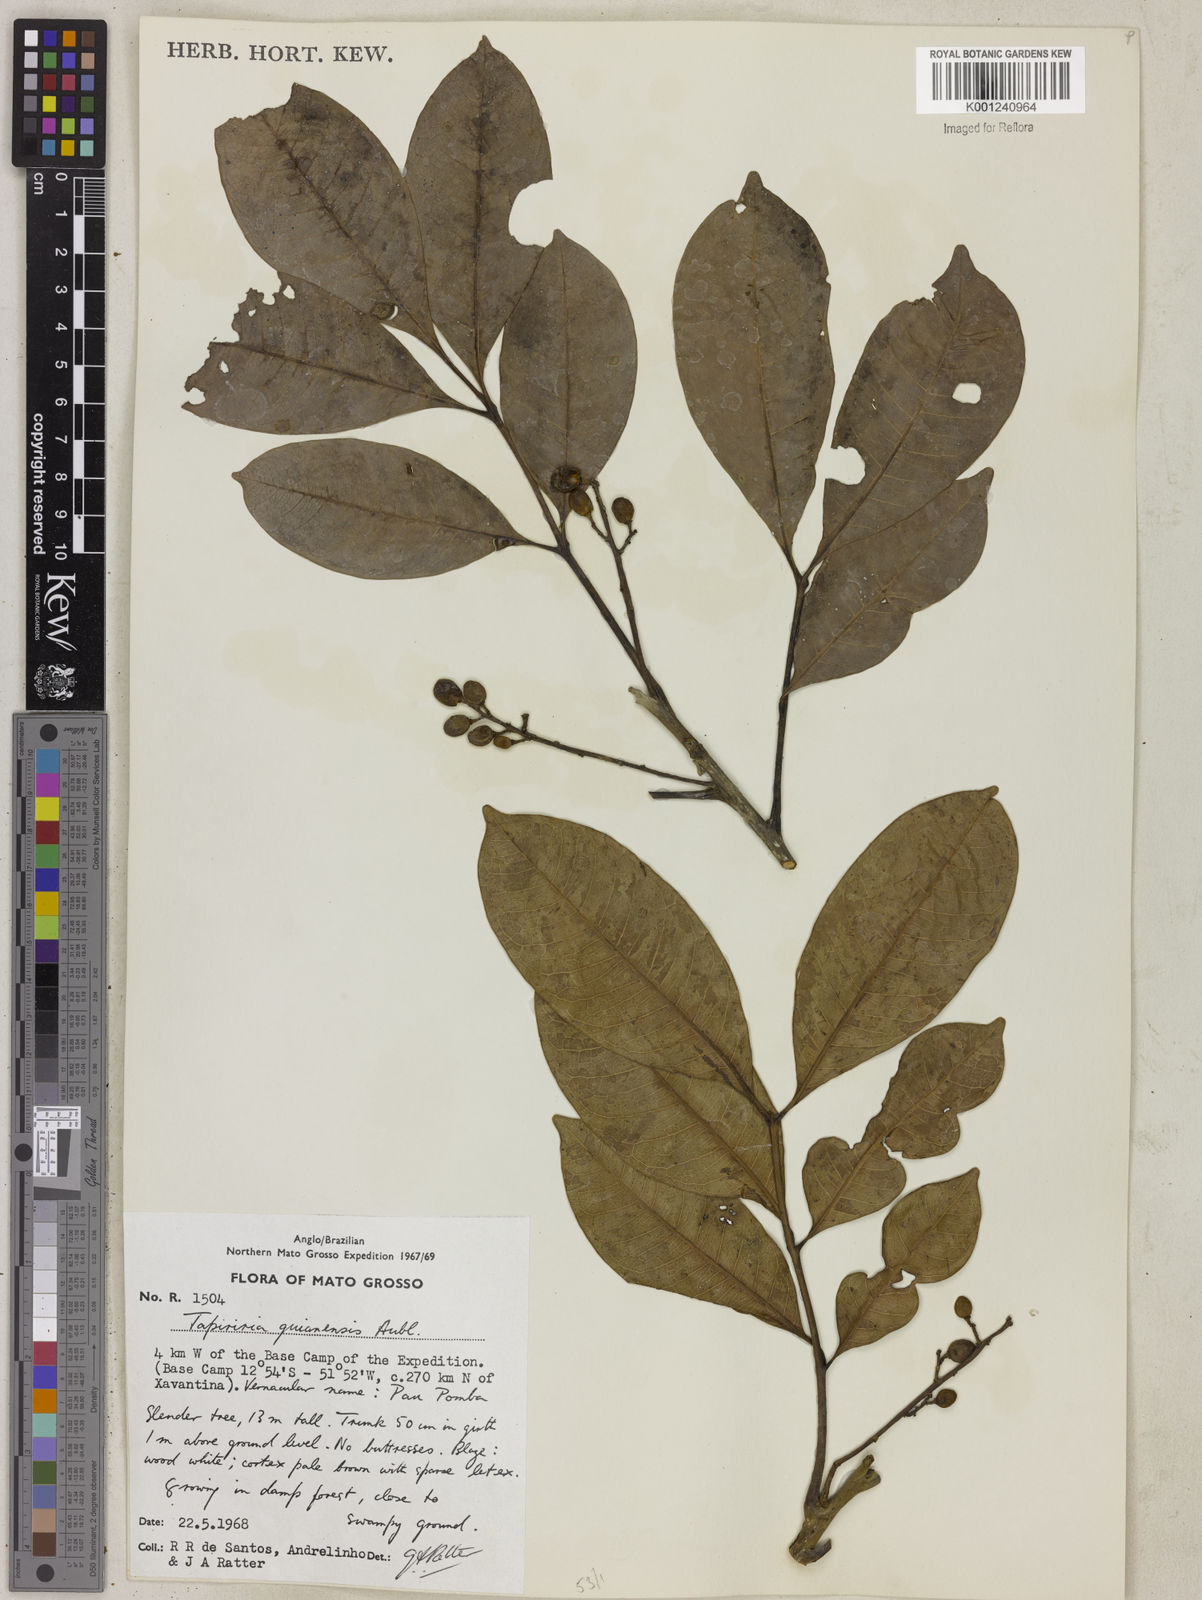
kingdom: Plantae
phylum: Tracheophyta
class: Magnoliopsida
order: Sapindales
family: Anacardiaceae
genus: Tapirira
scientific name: Tapirira guianensis
